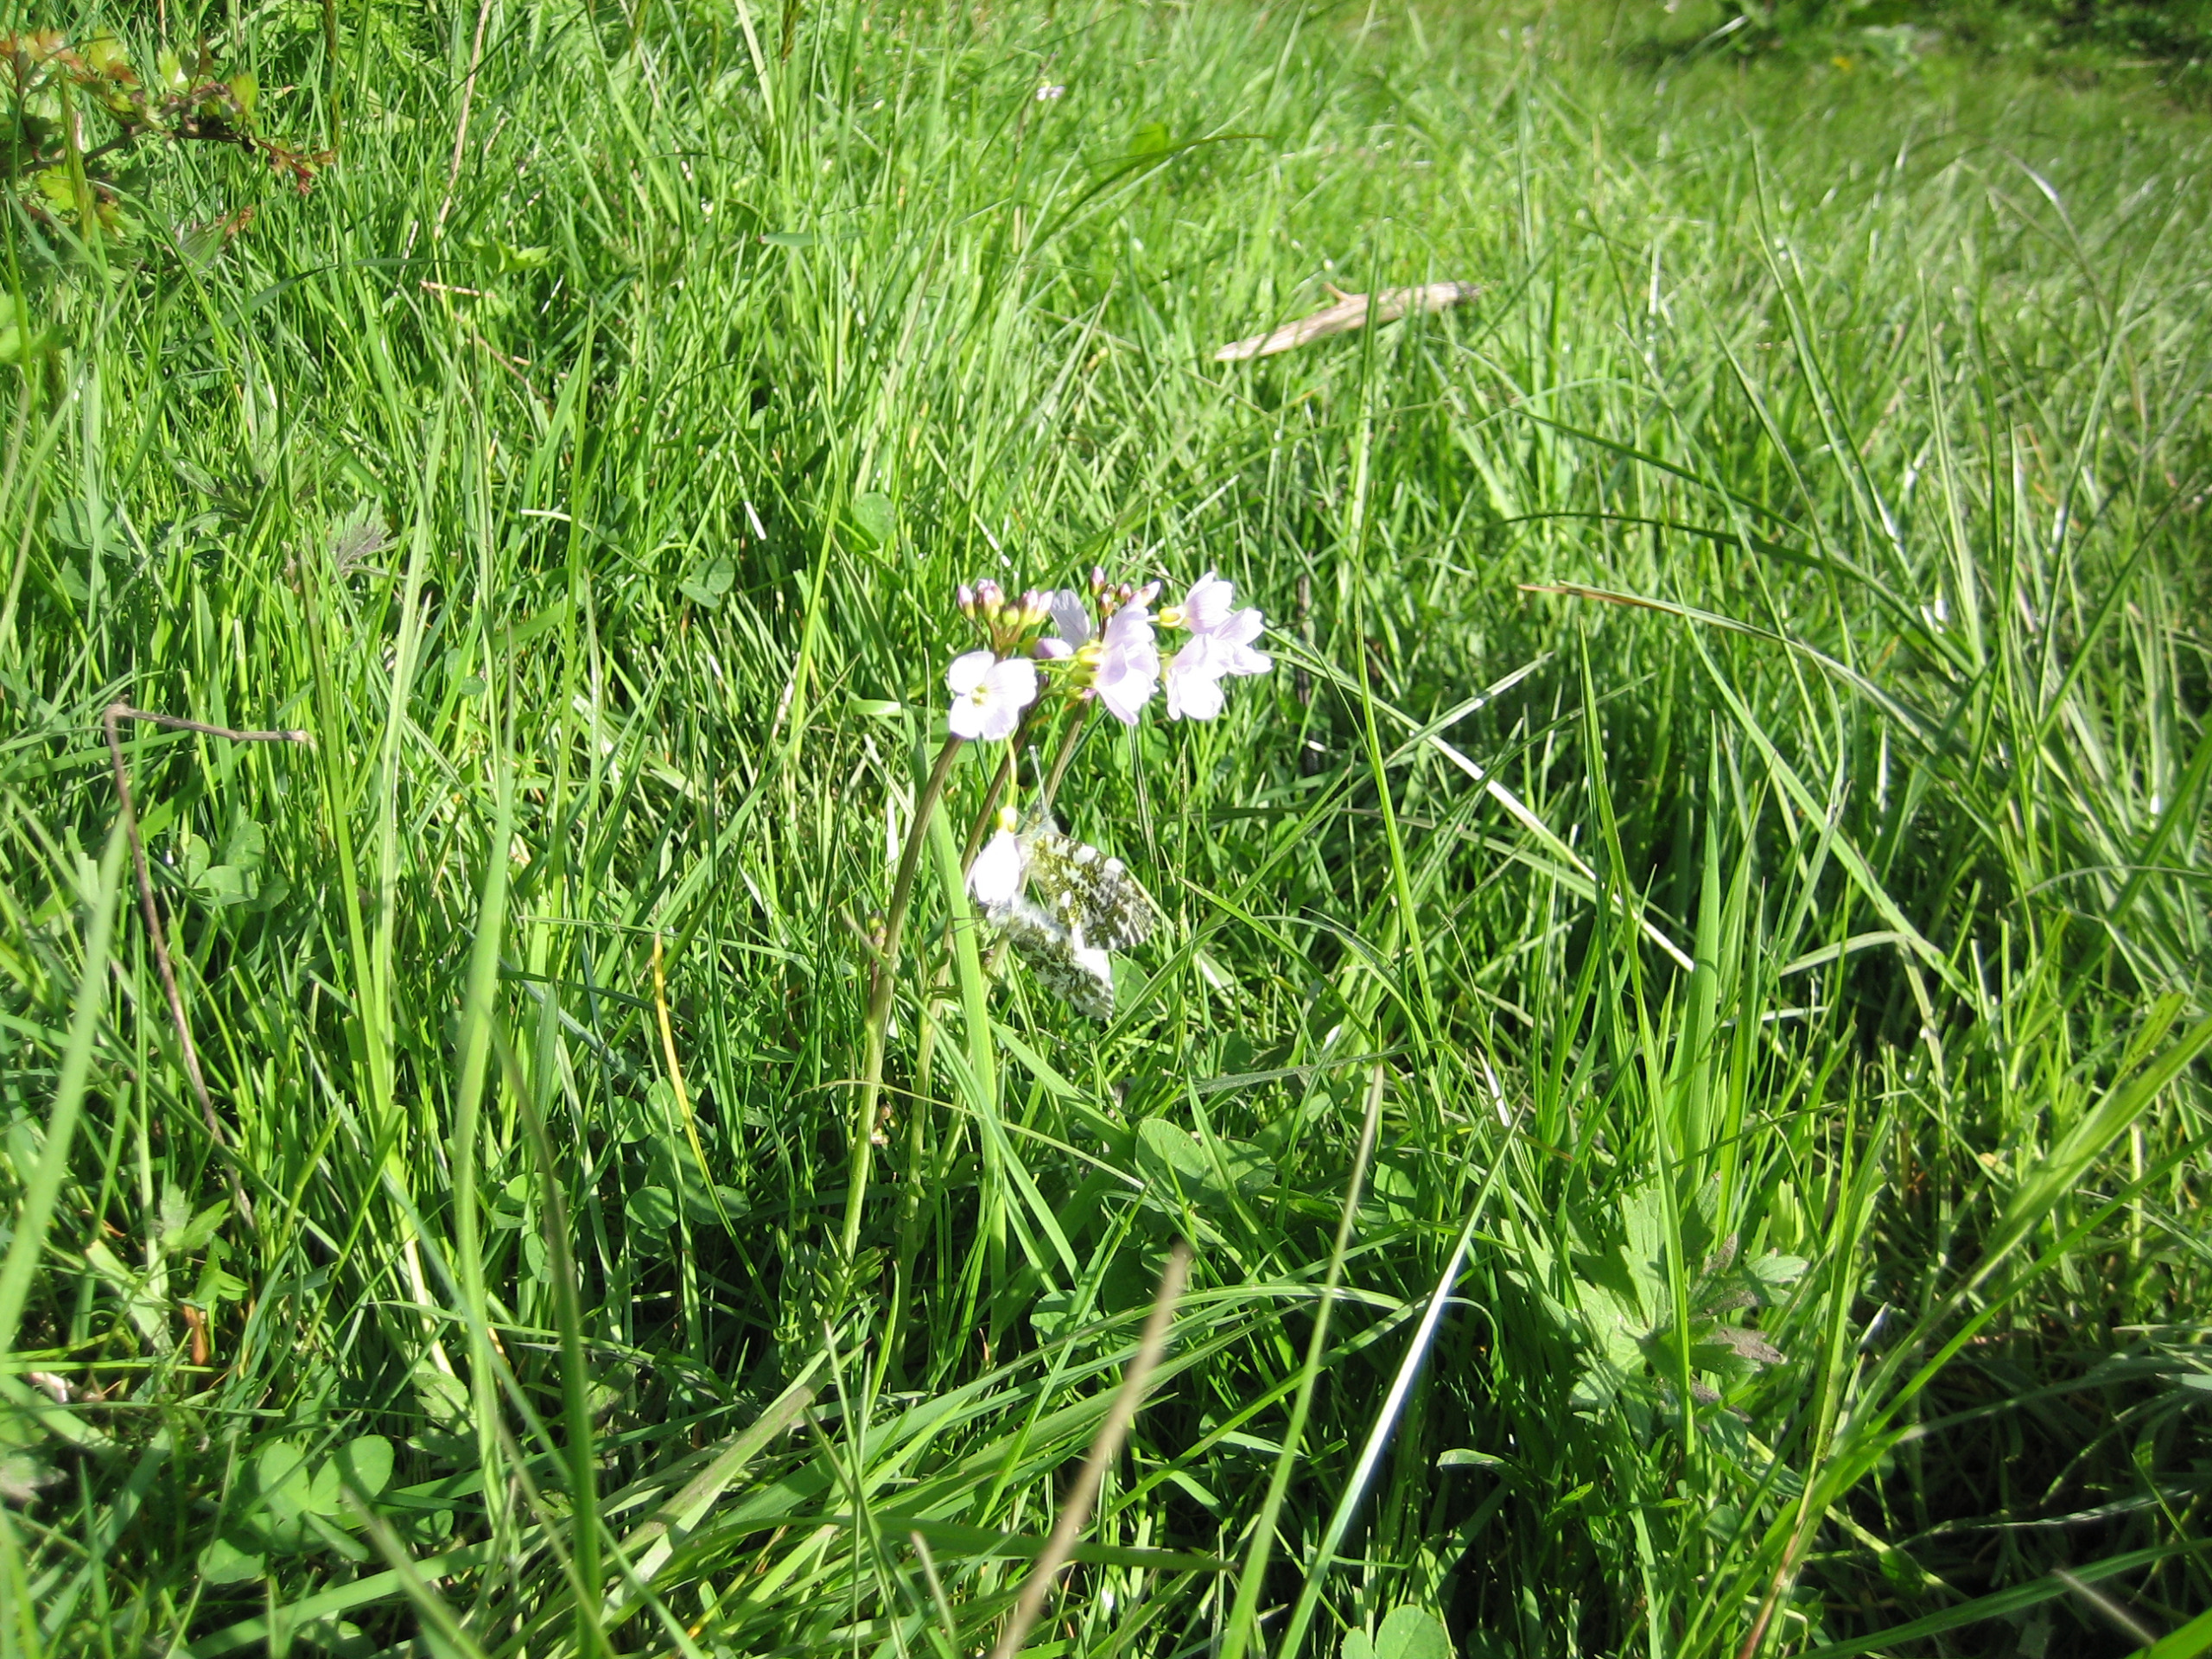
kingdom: Plantae
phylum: Tracheophyta
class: Magnoliopsida
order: Brassicales
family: Brassicaceae
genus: Cardamine
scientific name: Cardamine pratensis
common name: Engkarse
